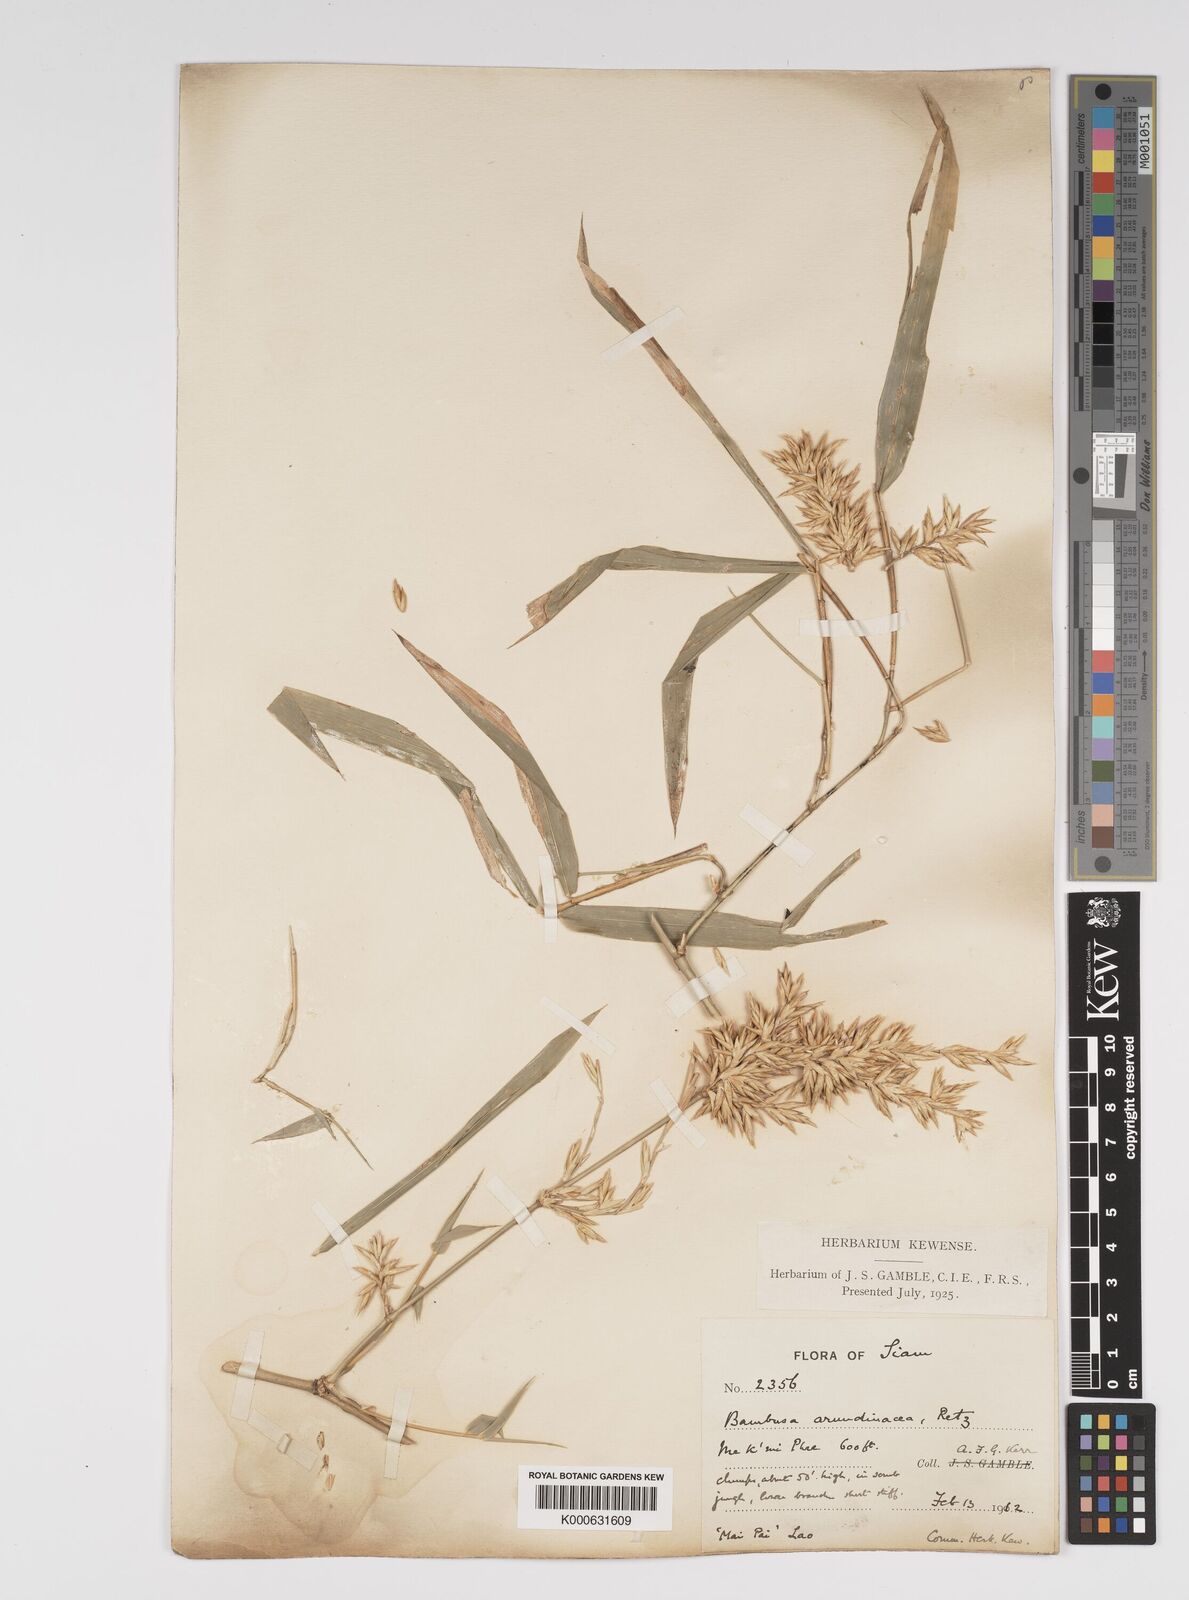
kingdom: Plantae
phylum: Tracheophyta
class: Liliopsida
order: Poales
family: Poaceae
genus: Bambusa
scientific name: Bambusa bambos
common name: Indian thorny bamboo
